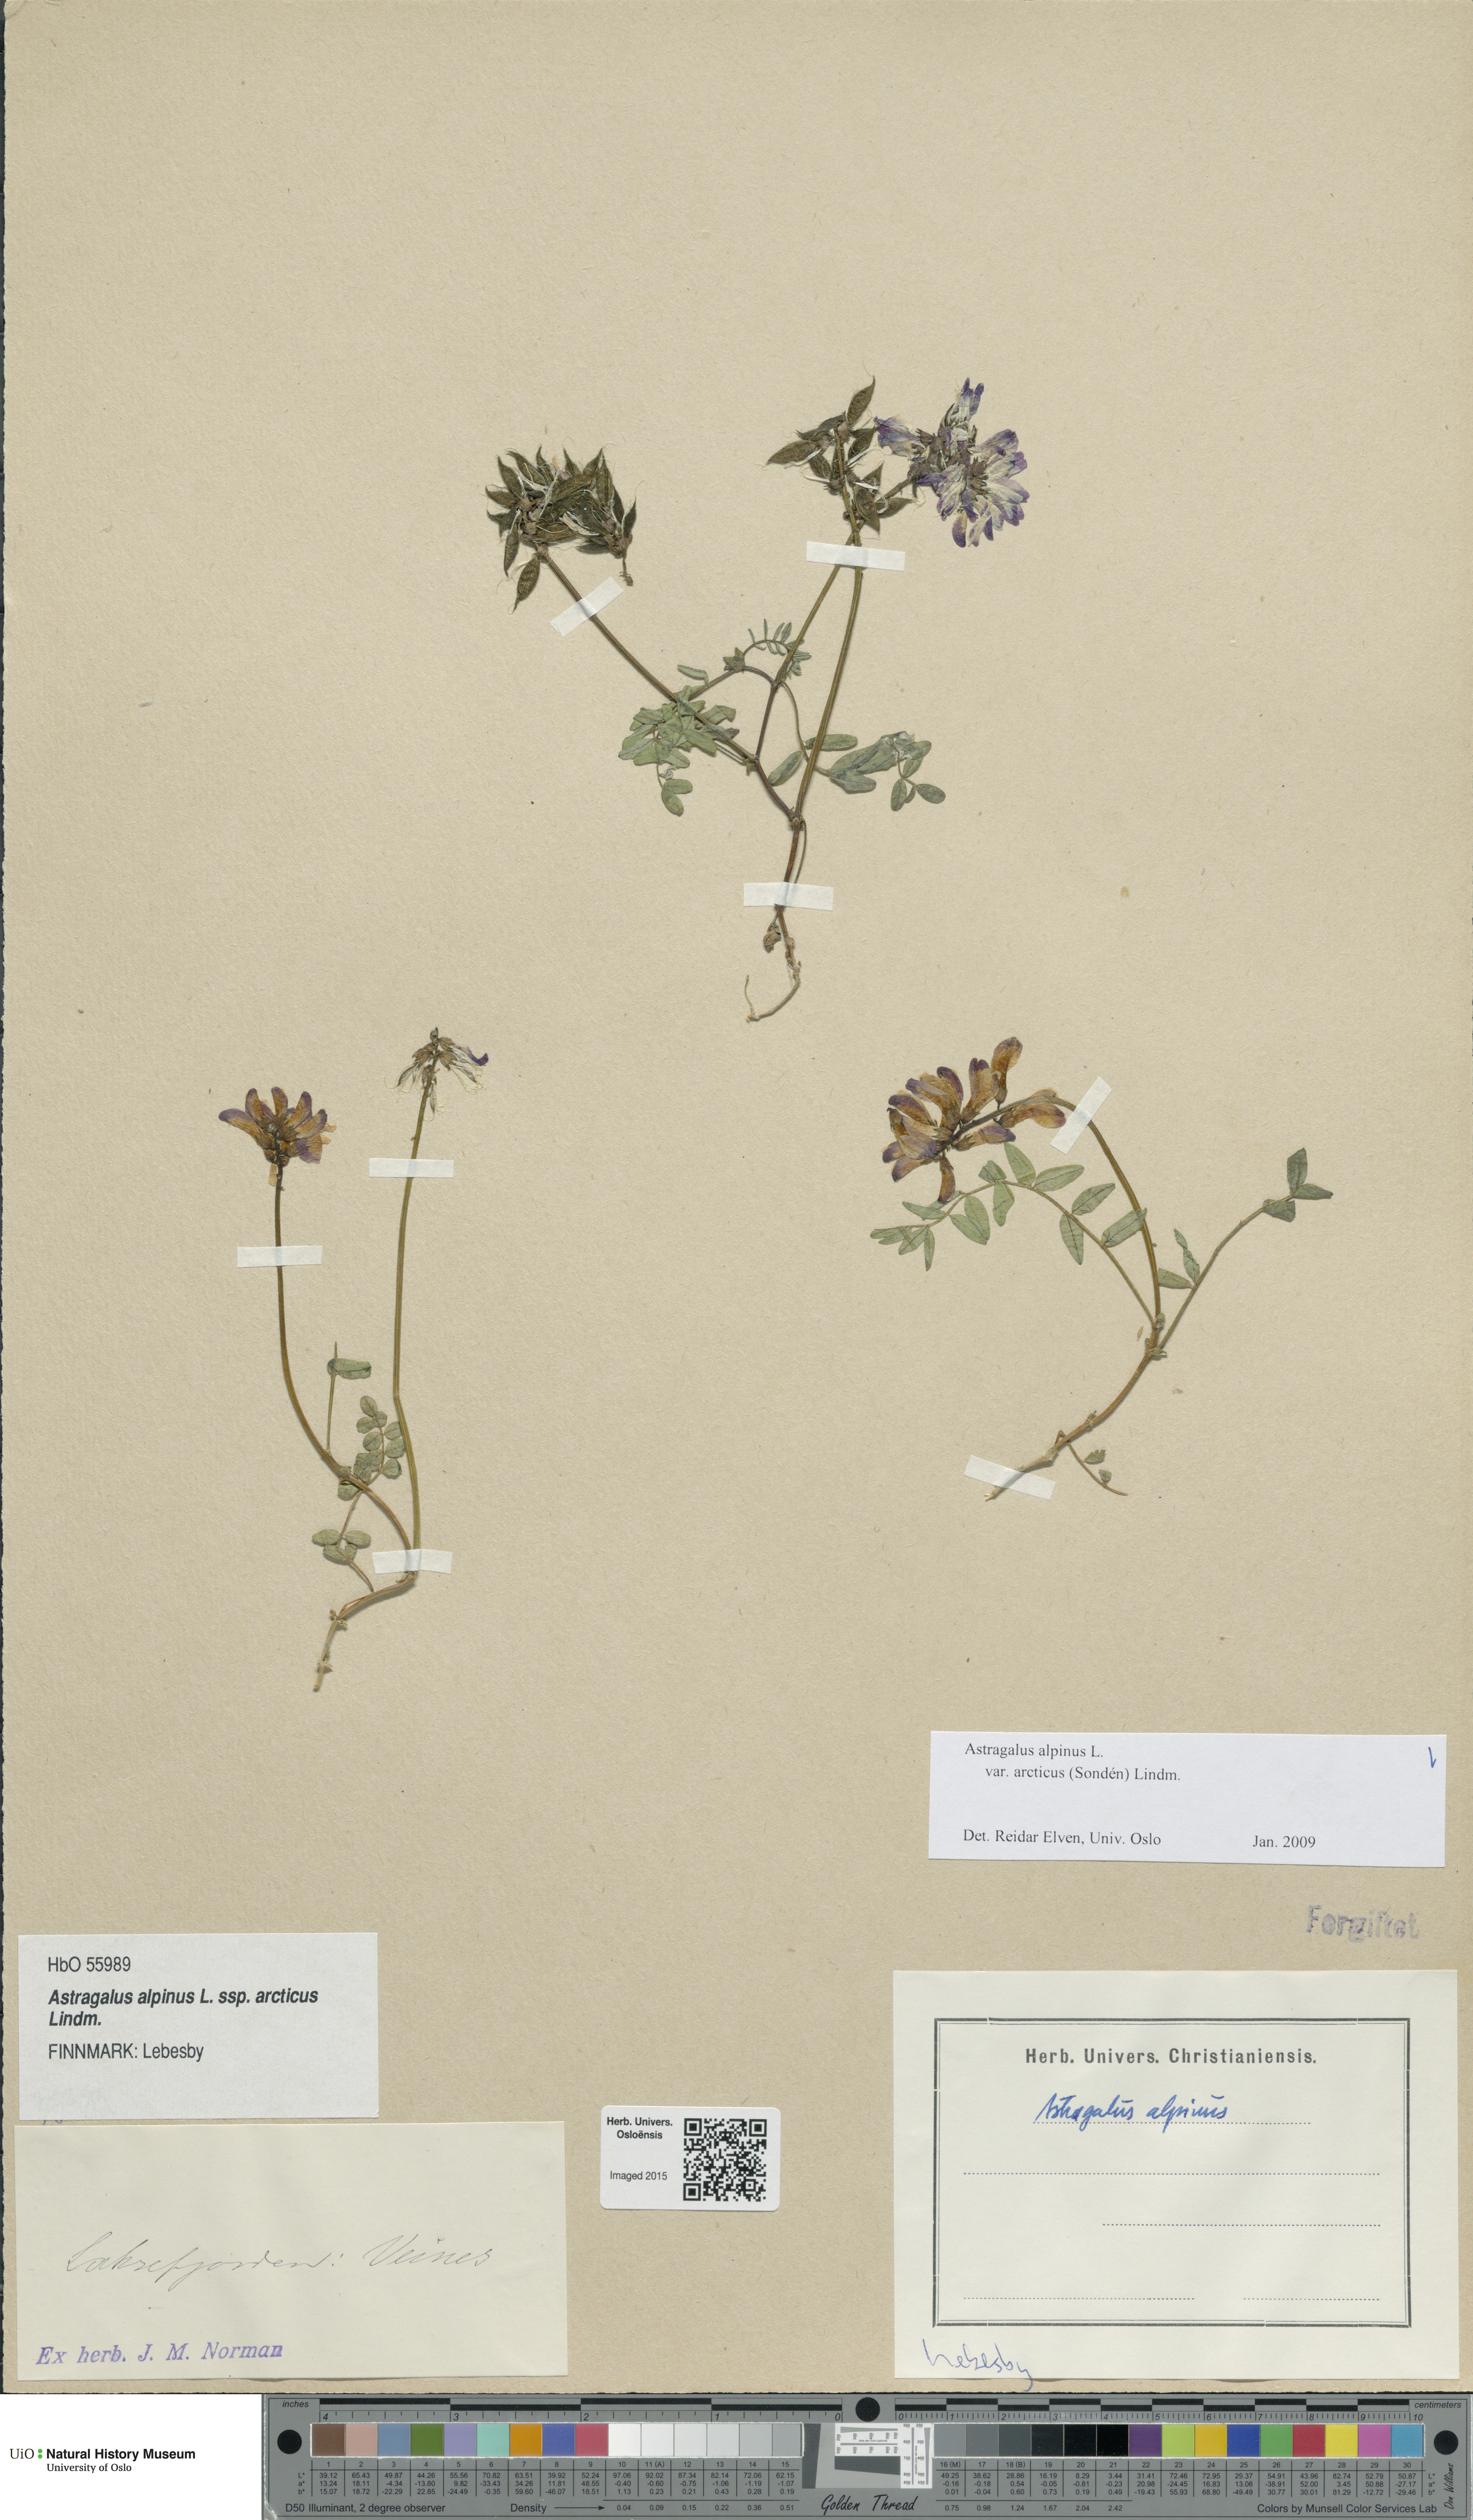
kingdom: Plantae
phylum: Tracheophyta
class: Magnoliopsida
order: Fabales
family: Fabaceae
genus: Astragalus
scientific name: Astragalus norvegicus
